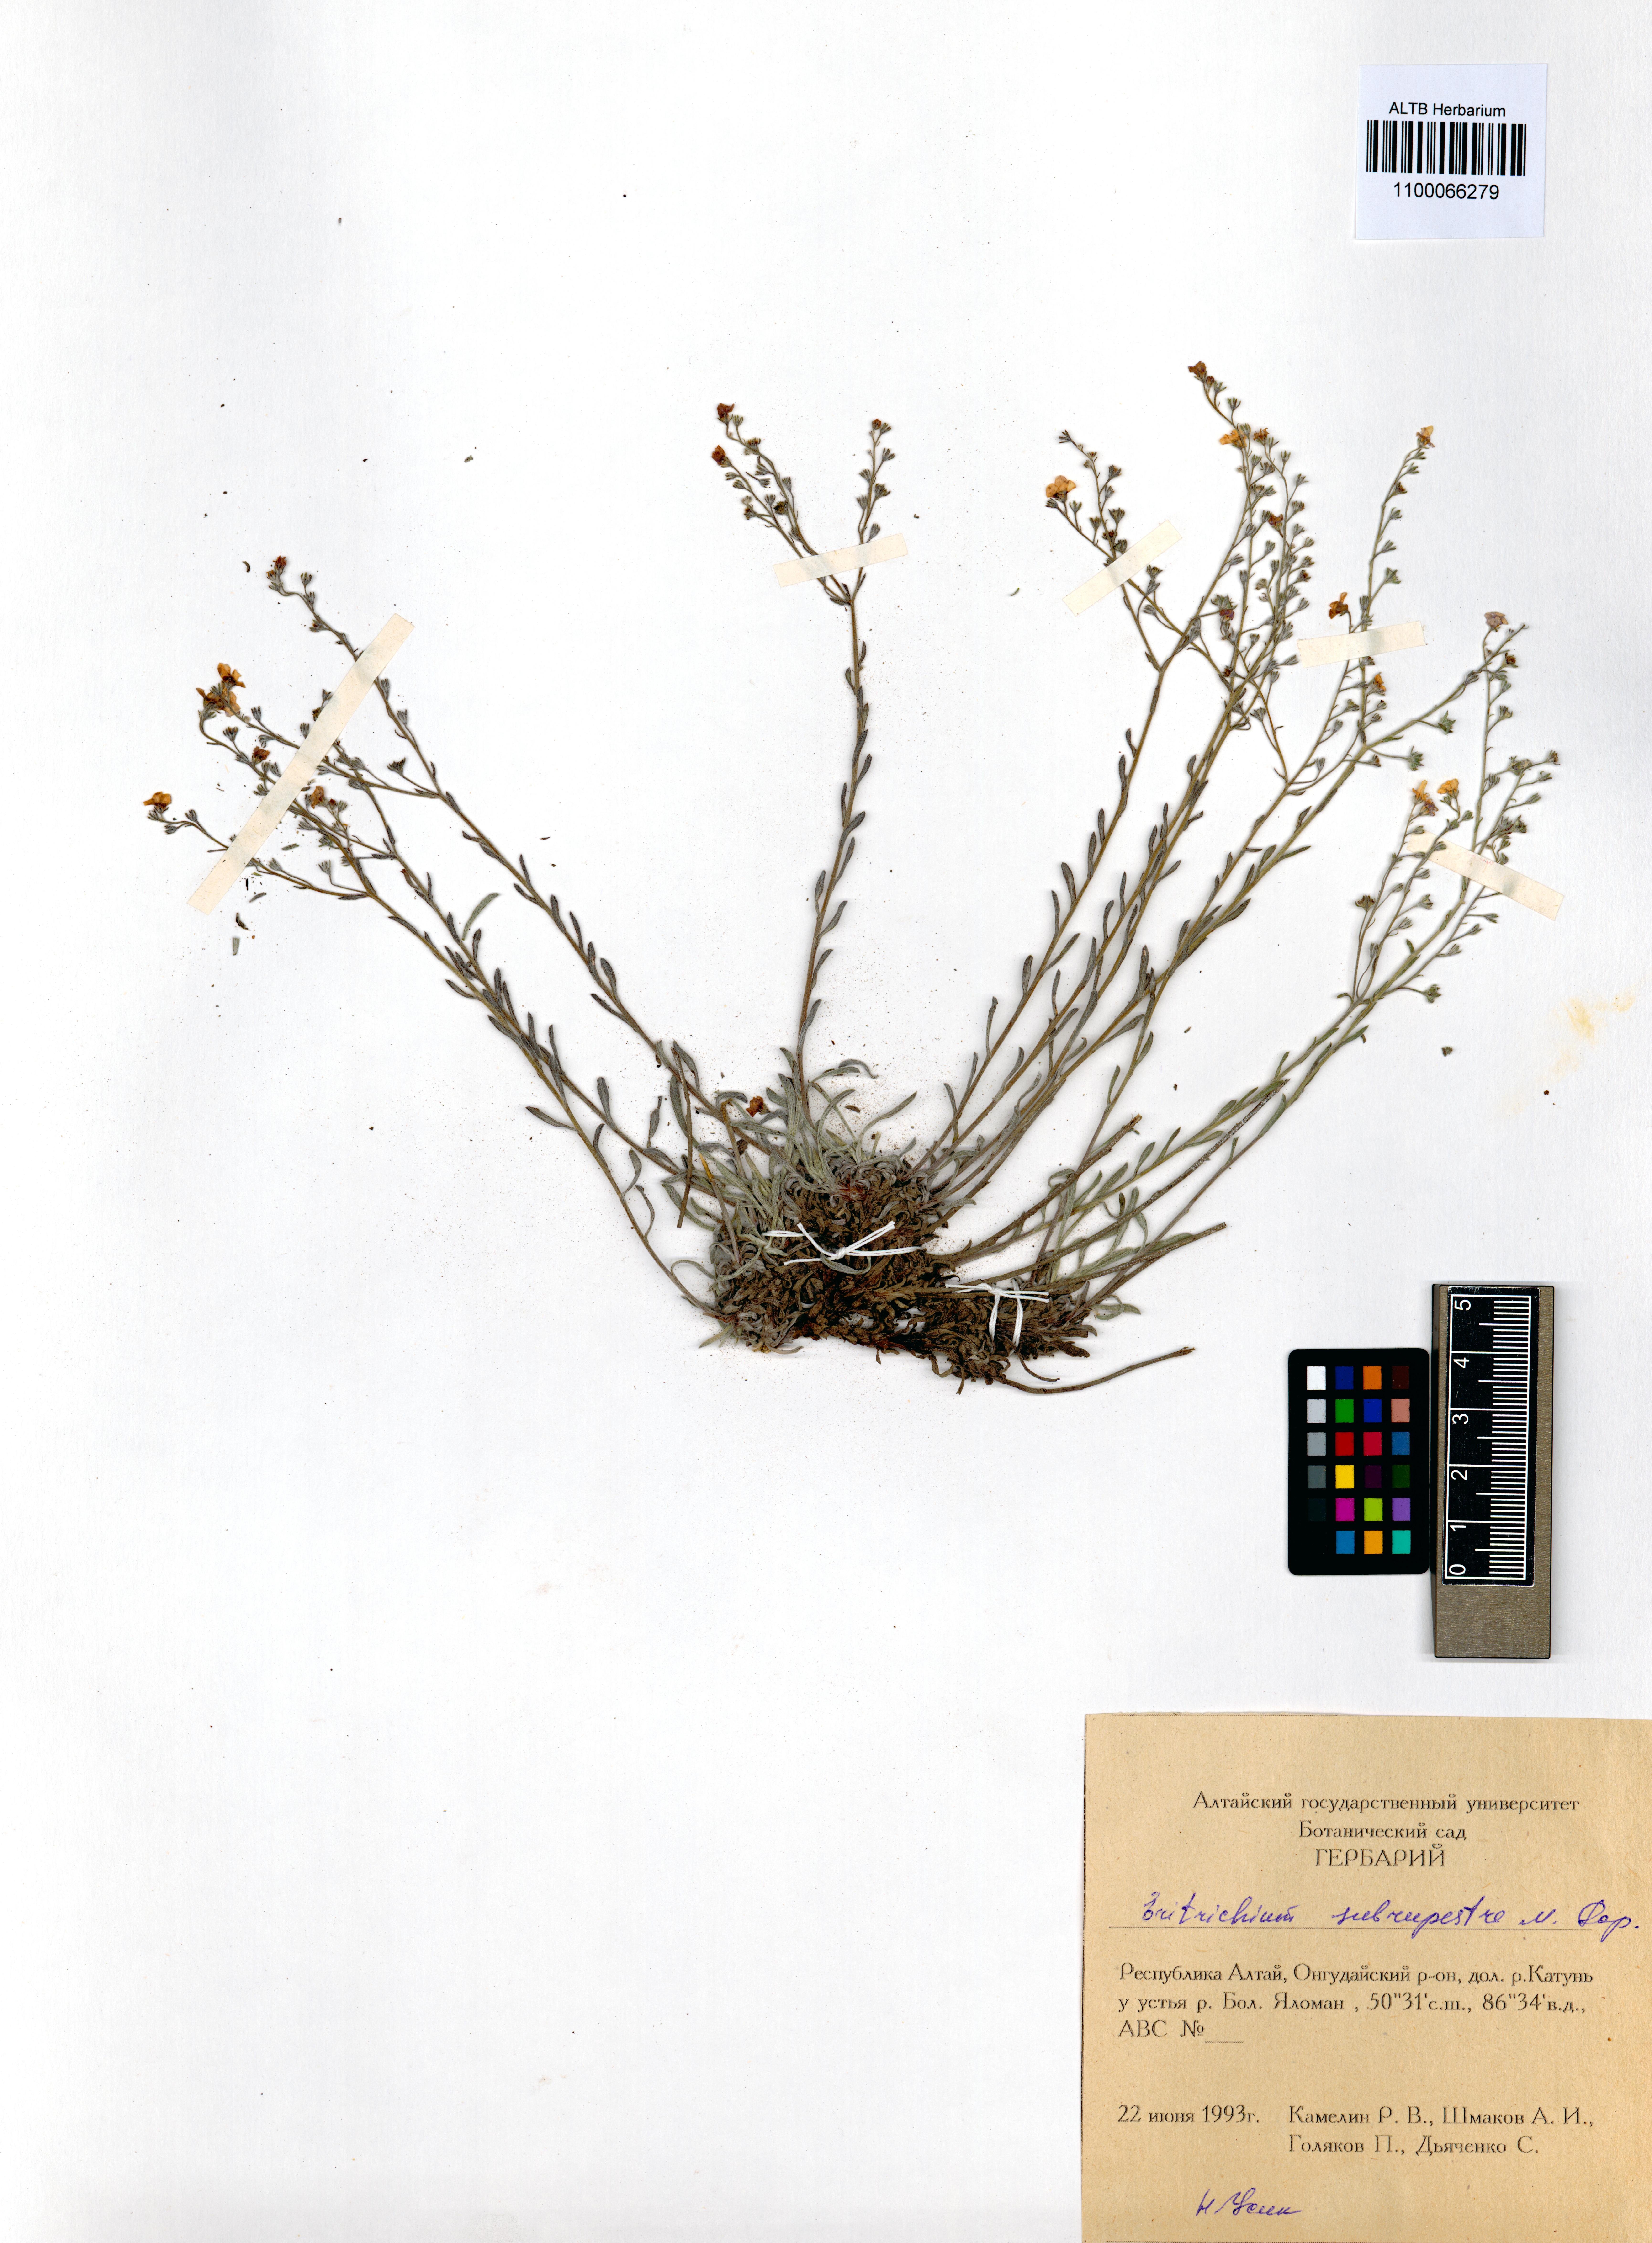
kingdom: Plantae
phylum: Tracheophyta
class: Magnoliopsida
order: Boraginales
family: Boraginaceae
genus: Eritrichium
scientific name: Eritrichium pauciflorum
